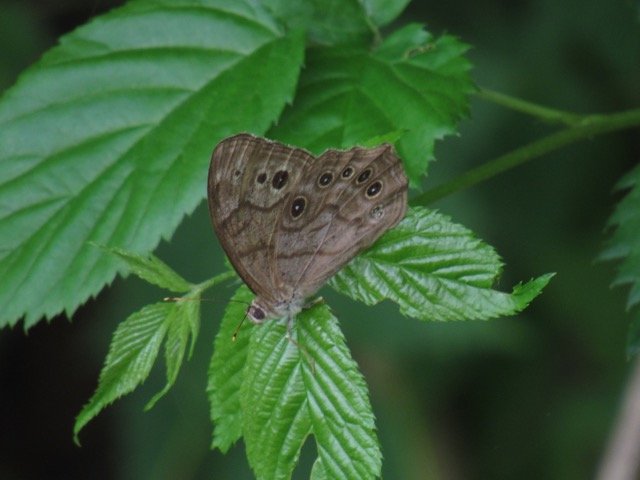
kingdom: Animalia
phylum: Arthropoda
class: Insecta
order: Lepidoptera
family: Nymphalidae
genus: Lethe
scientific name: Lethe anthedon
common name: Northern Pearly-Eye
